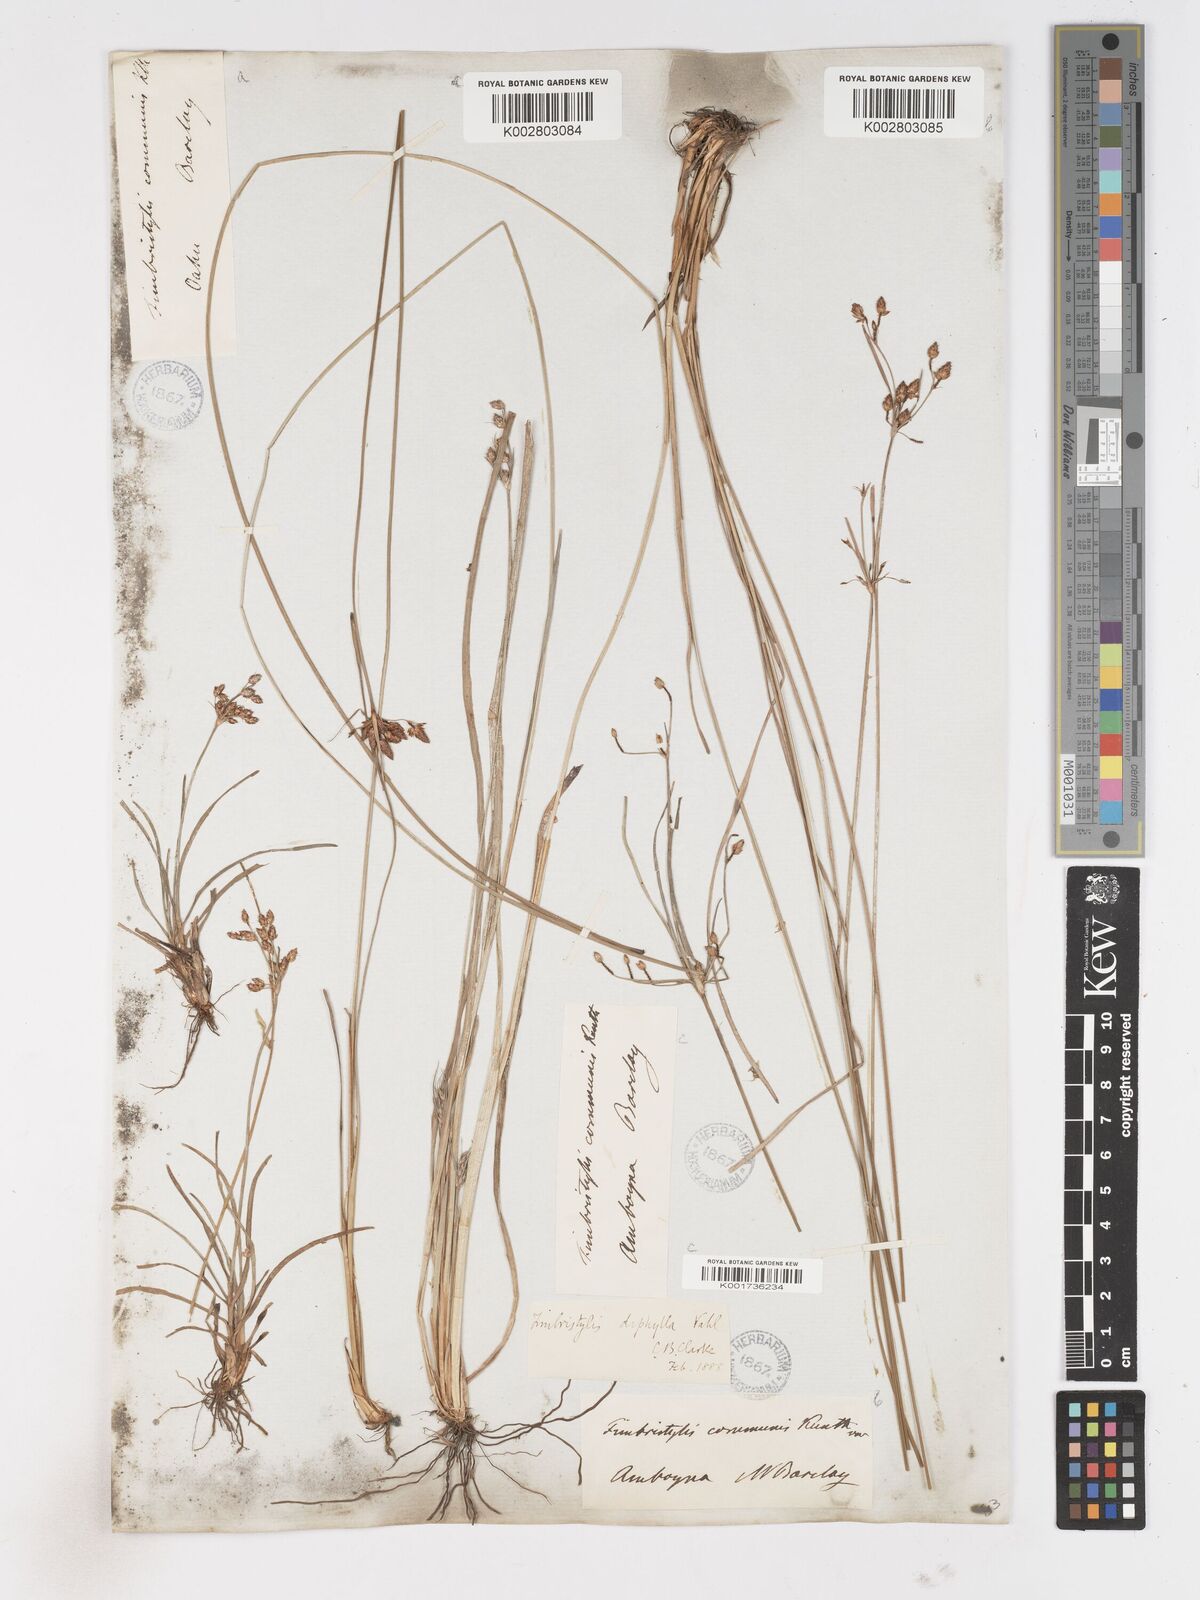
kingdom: Plantae
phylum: Tracheophyta
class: Liliopsida
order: Poales
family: Cyperaceae
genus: Fimbristylis
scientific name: Fimbristylis dichotoma
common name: Forked fimbry
